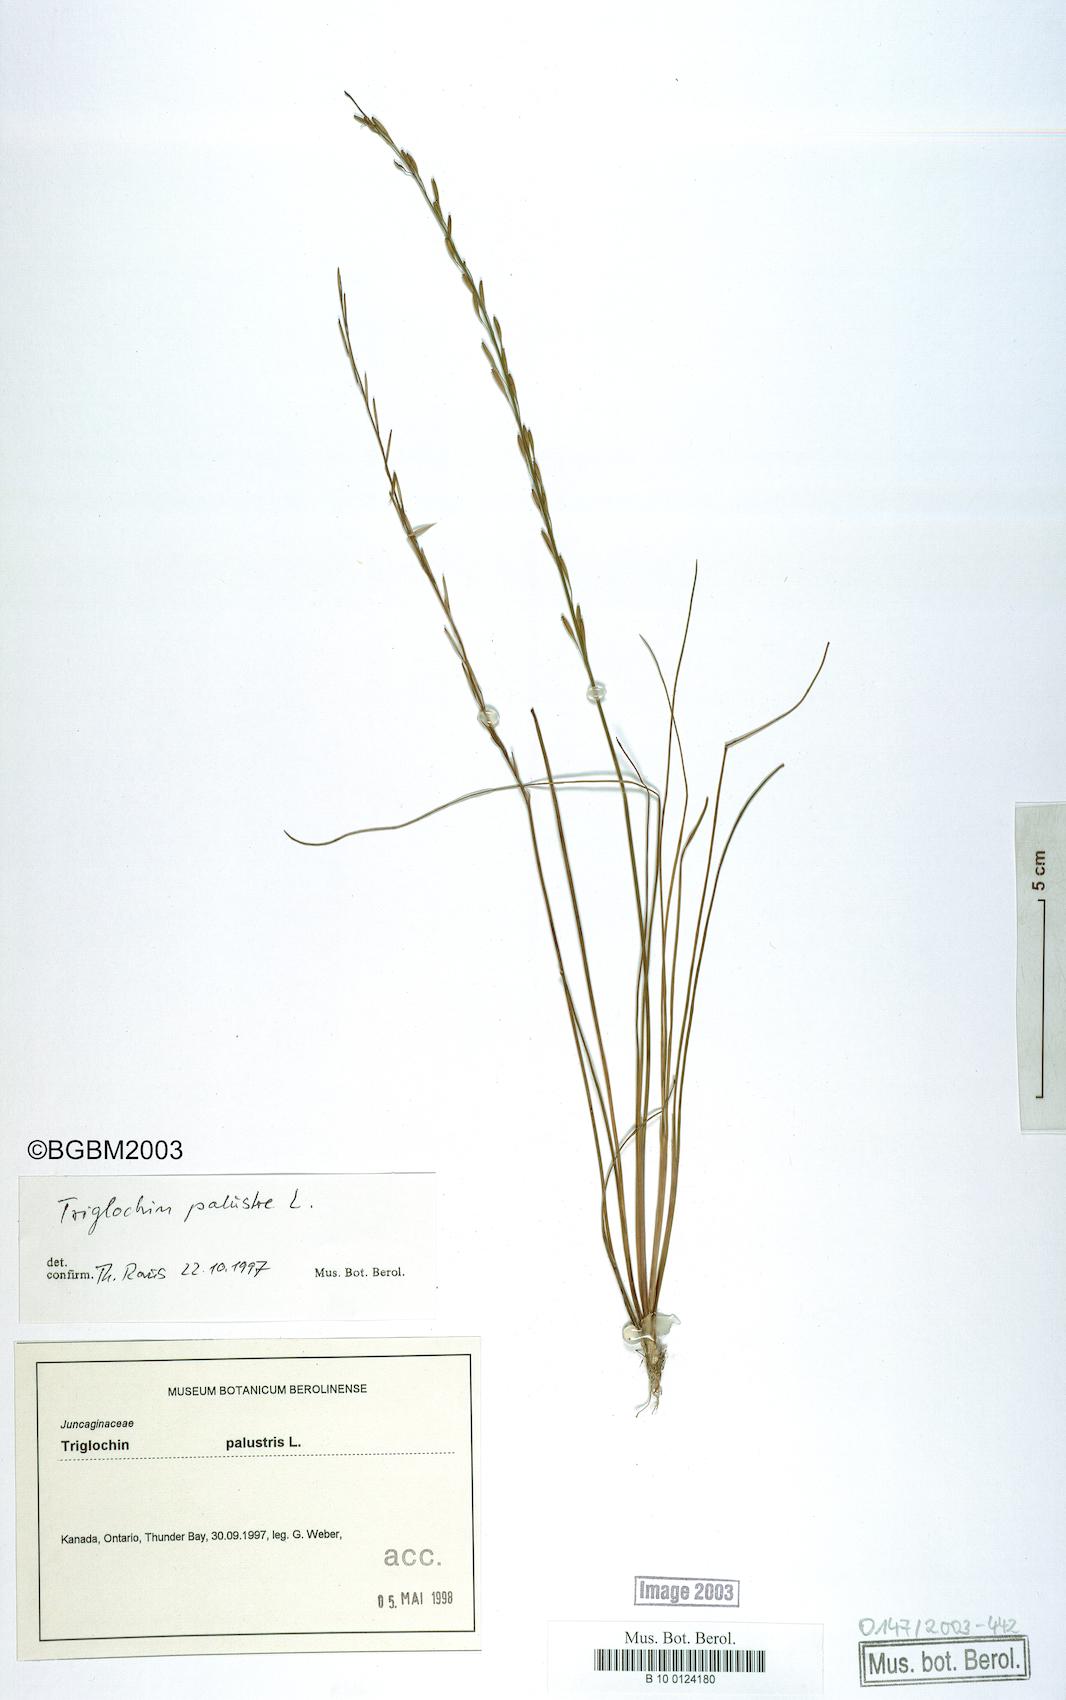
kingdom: Plantae
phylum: Tracheophyta
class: Liliopsida
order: Alismatales
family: Juncaginaceae
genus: Triglochin
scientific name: Triglochin palustris
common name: Marsh arrowgrass
